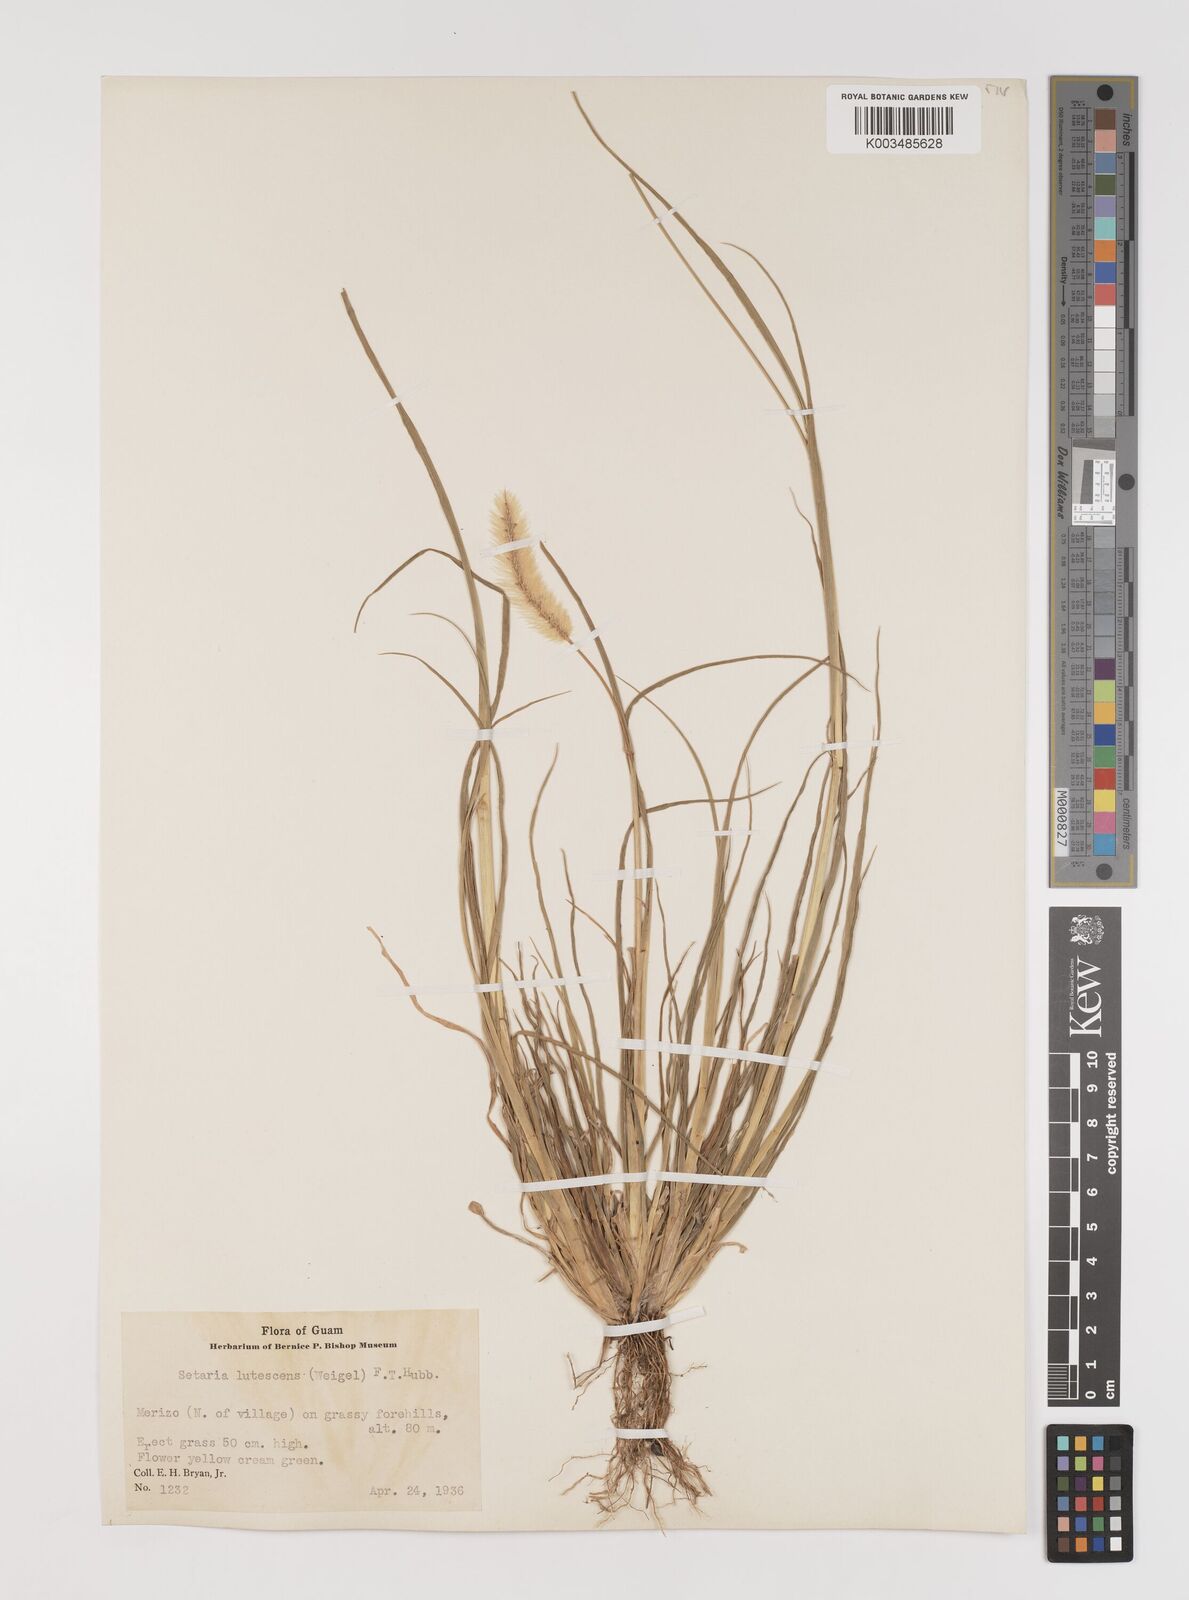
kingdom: Plantae
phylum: Tracheophyta
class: Liliopsida
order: Poales
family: Poaceae
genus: Setaria
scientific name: Setaria pumila
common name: Yellow bristle-grass
